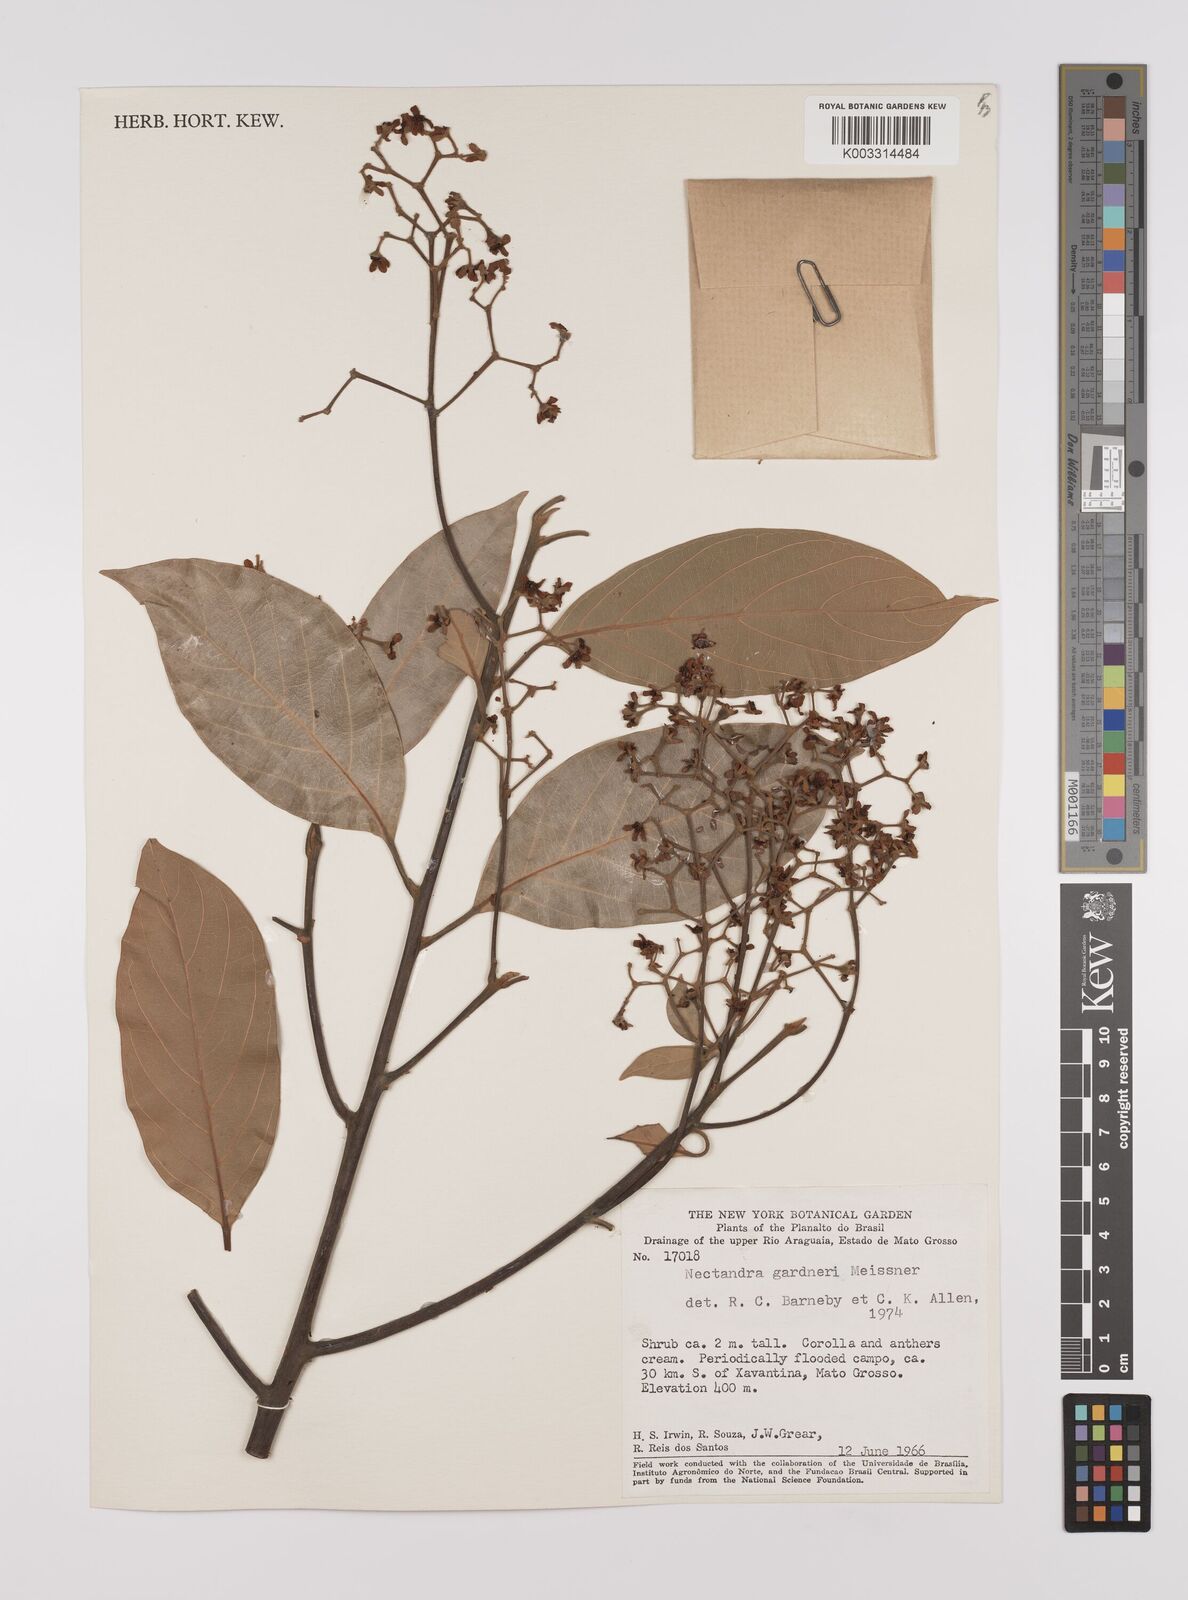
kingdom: Plantae
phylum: Tracheophyta
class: Magnoliopsida
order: Laurales
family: Lauraceae
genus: Nectandra
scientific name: Nectandra gardneri
